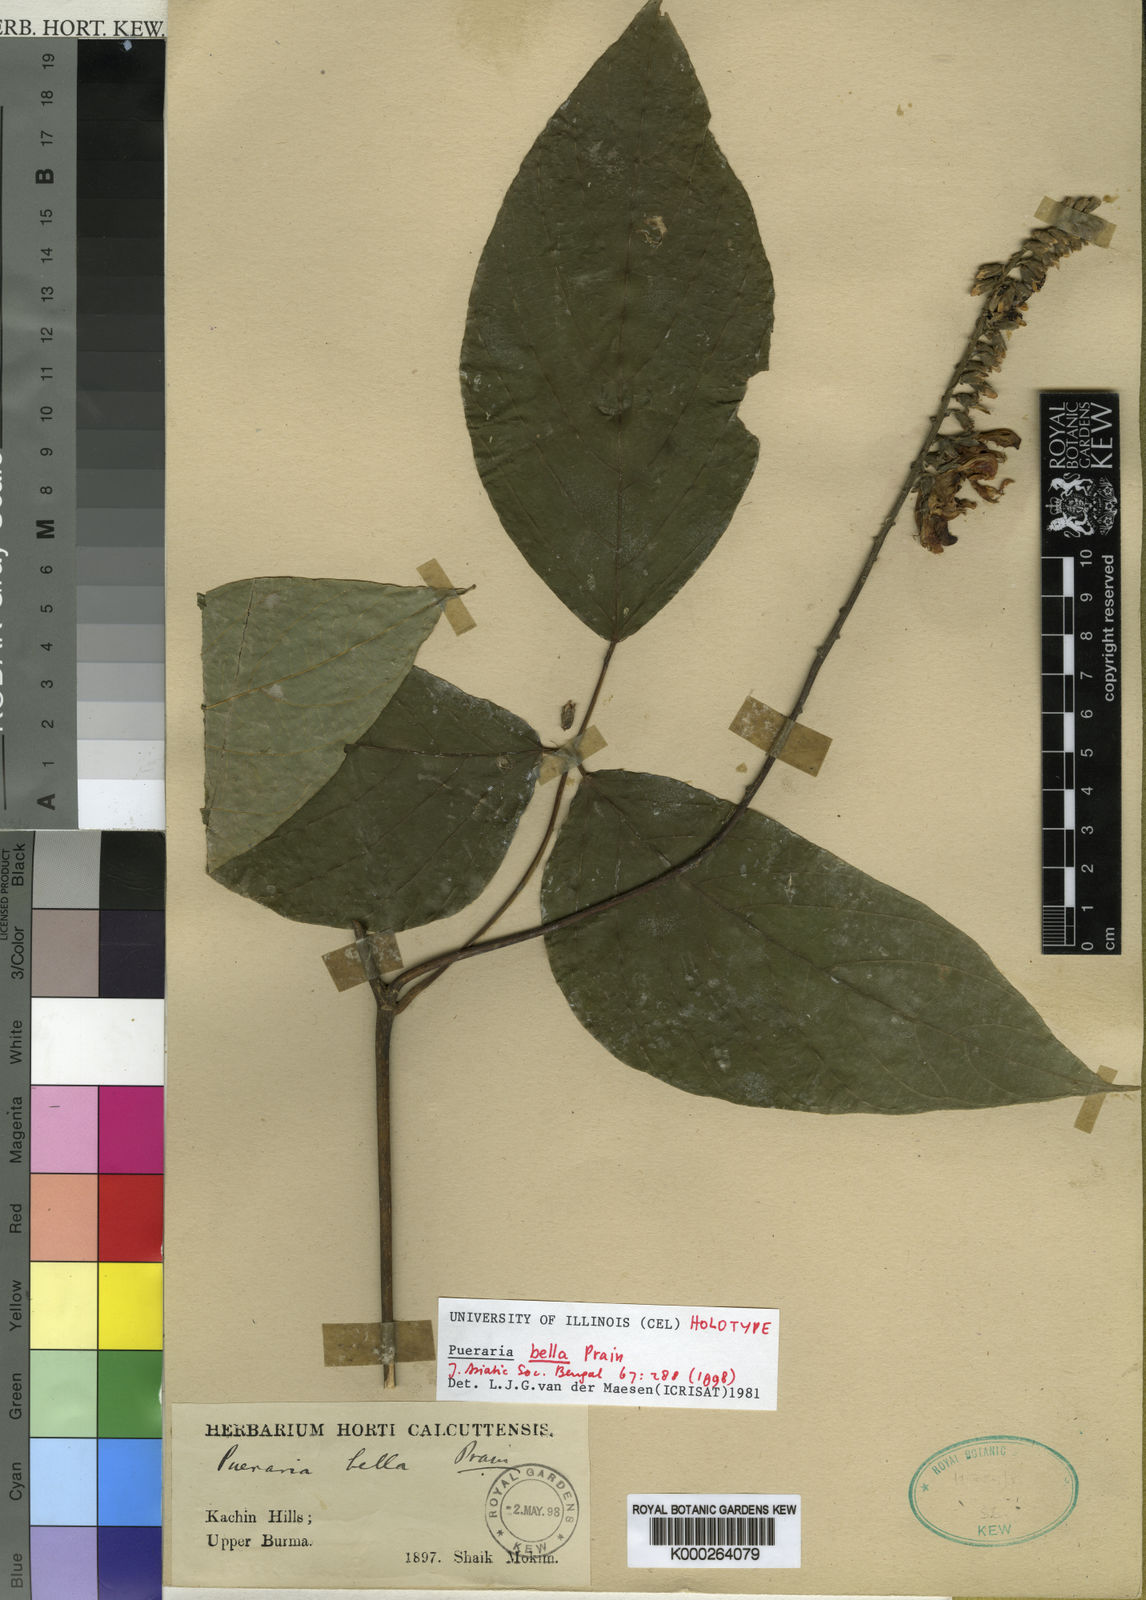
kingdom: Plantae
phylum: Tracheophyta
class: Magnoliopsida
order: Fabales
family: Fabaceae
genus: Pueraria
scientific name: Pueraria bella
